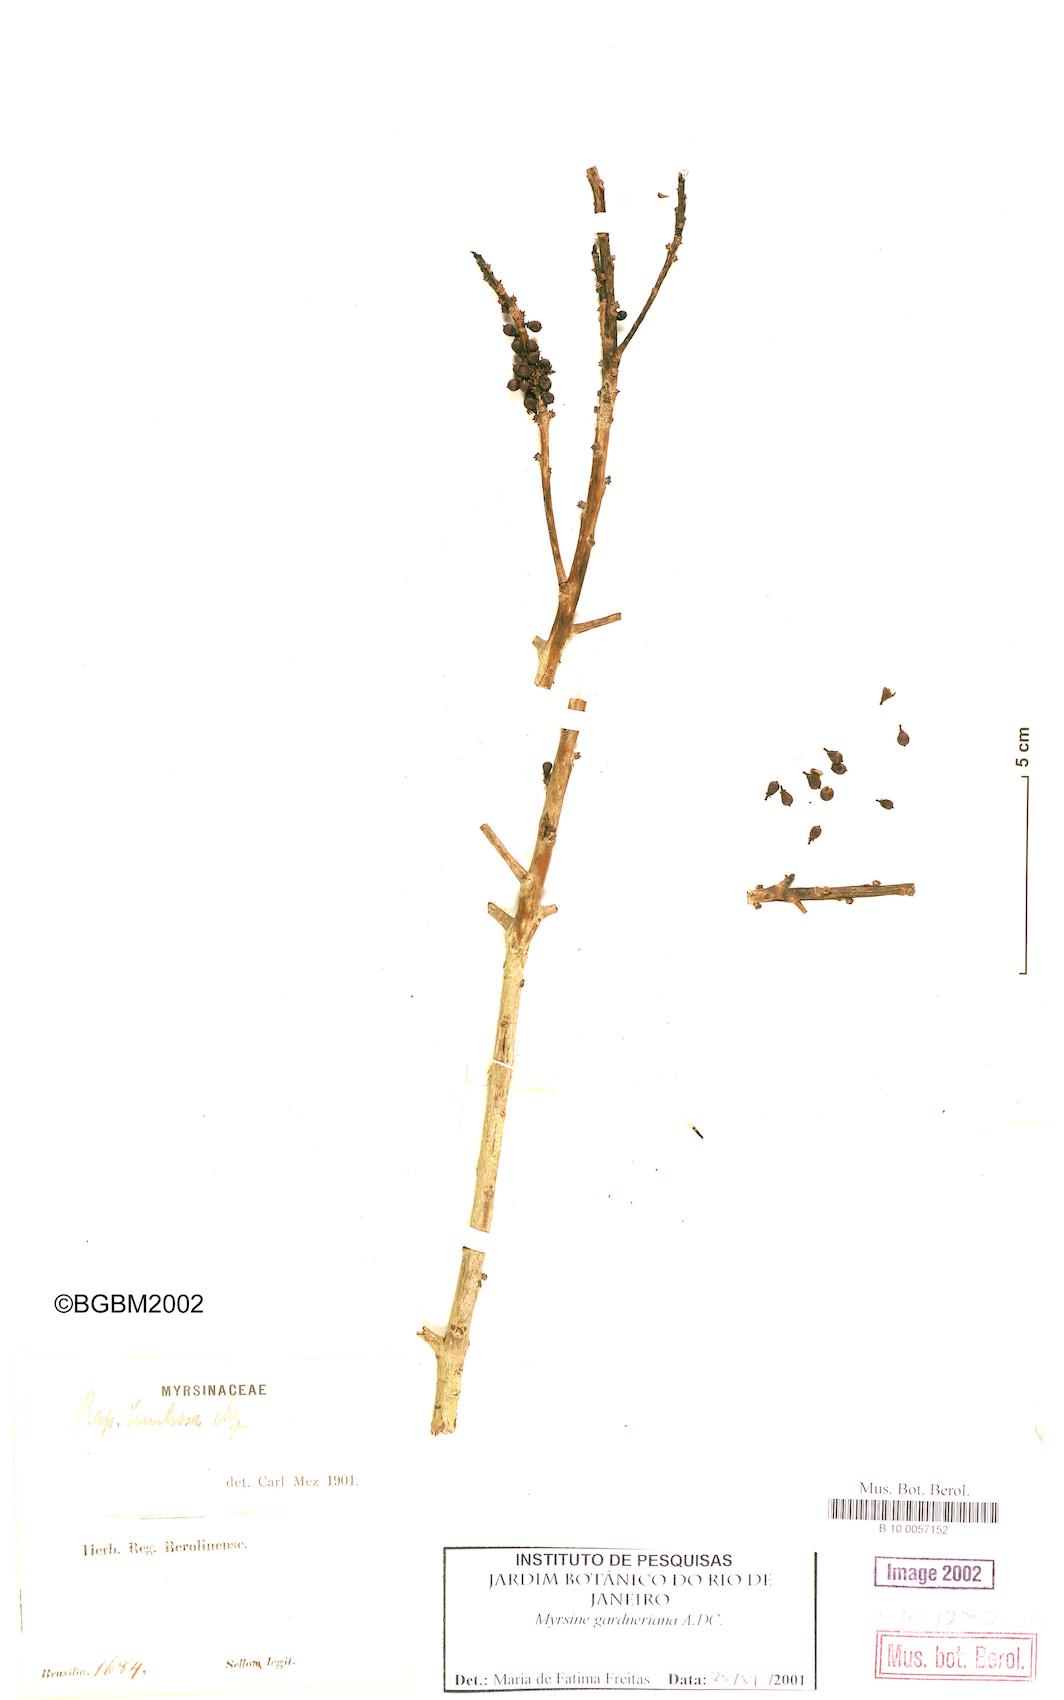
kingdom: Plantae
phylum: Tracheophyta
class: Magnoliopsida
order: Ericales
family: Primulaceae
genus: Myrsine
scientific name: Myrsine gardneriana
